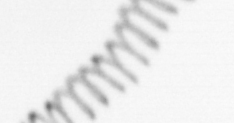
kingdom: Chromista
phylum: Ochrophyta
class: Bacillariophyceae
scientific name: Bacillariophyceae
